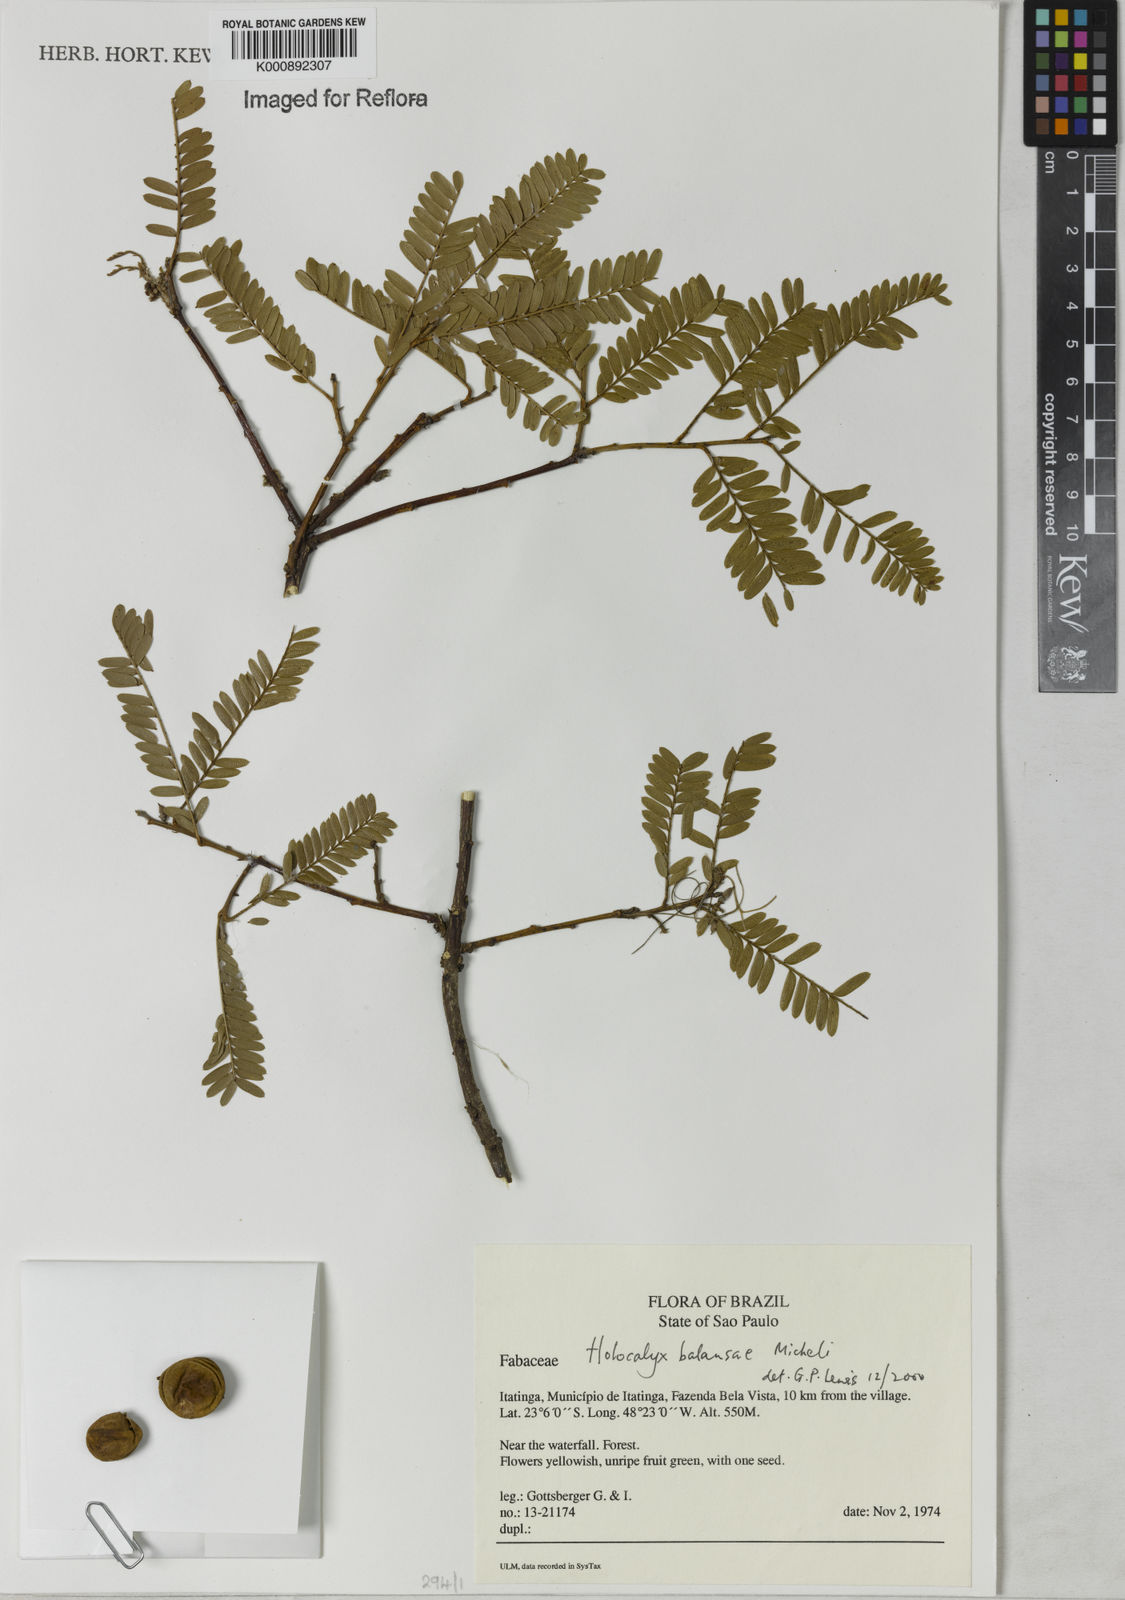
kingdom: Plantae
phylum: Tracheophyta
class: Magnoliopsida
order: Fabales
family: Fabaceae
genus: Holocalyx
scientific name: Holocalyx
